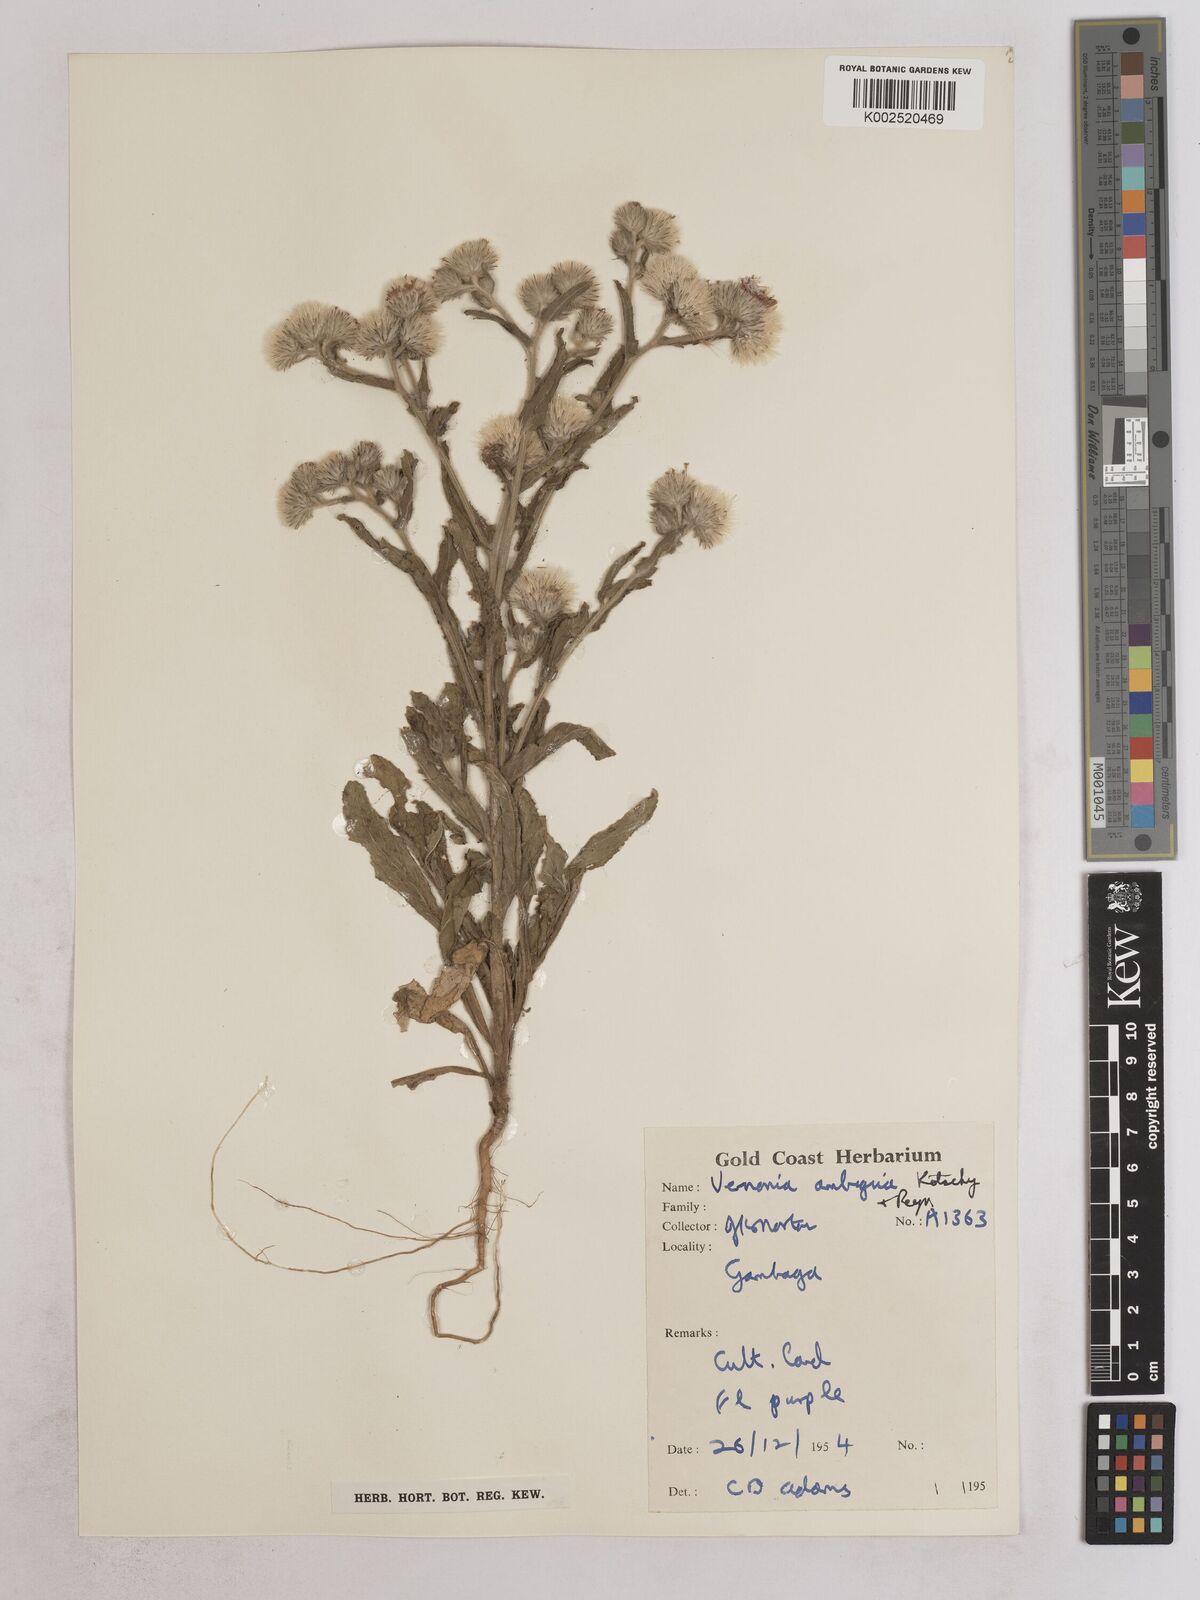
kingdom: Plantae
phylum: Tracheophyta
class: Magnoliopsida
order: Asterales
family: Asteraceae
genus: Vernoniastrum
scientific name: Vernoniastrum ambiguum
